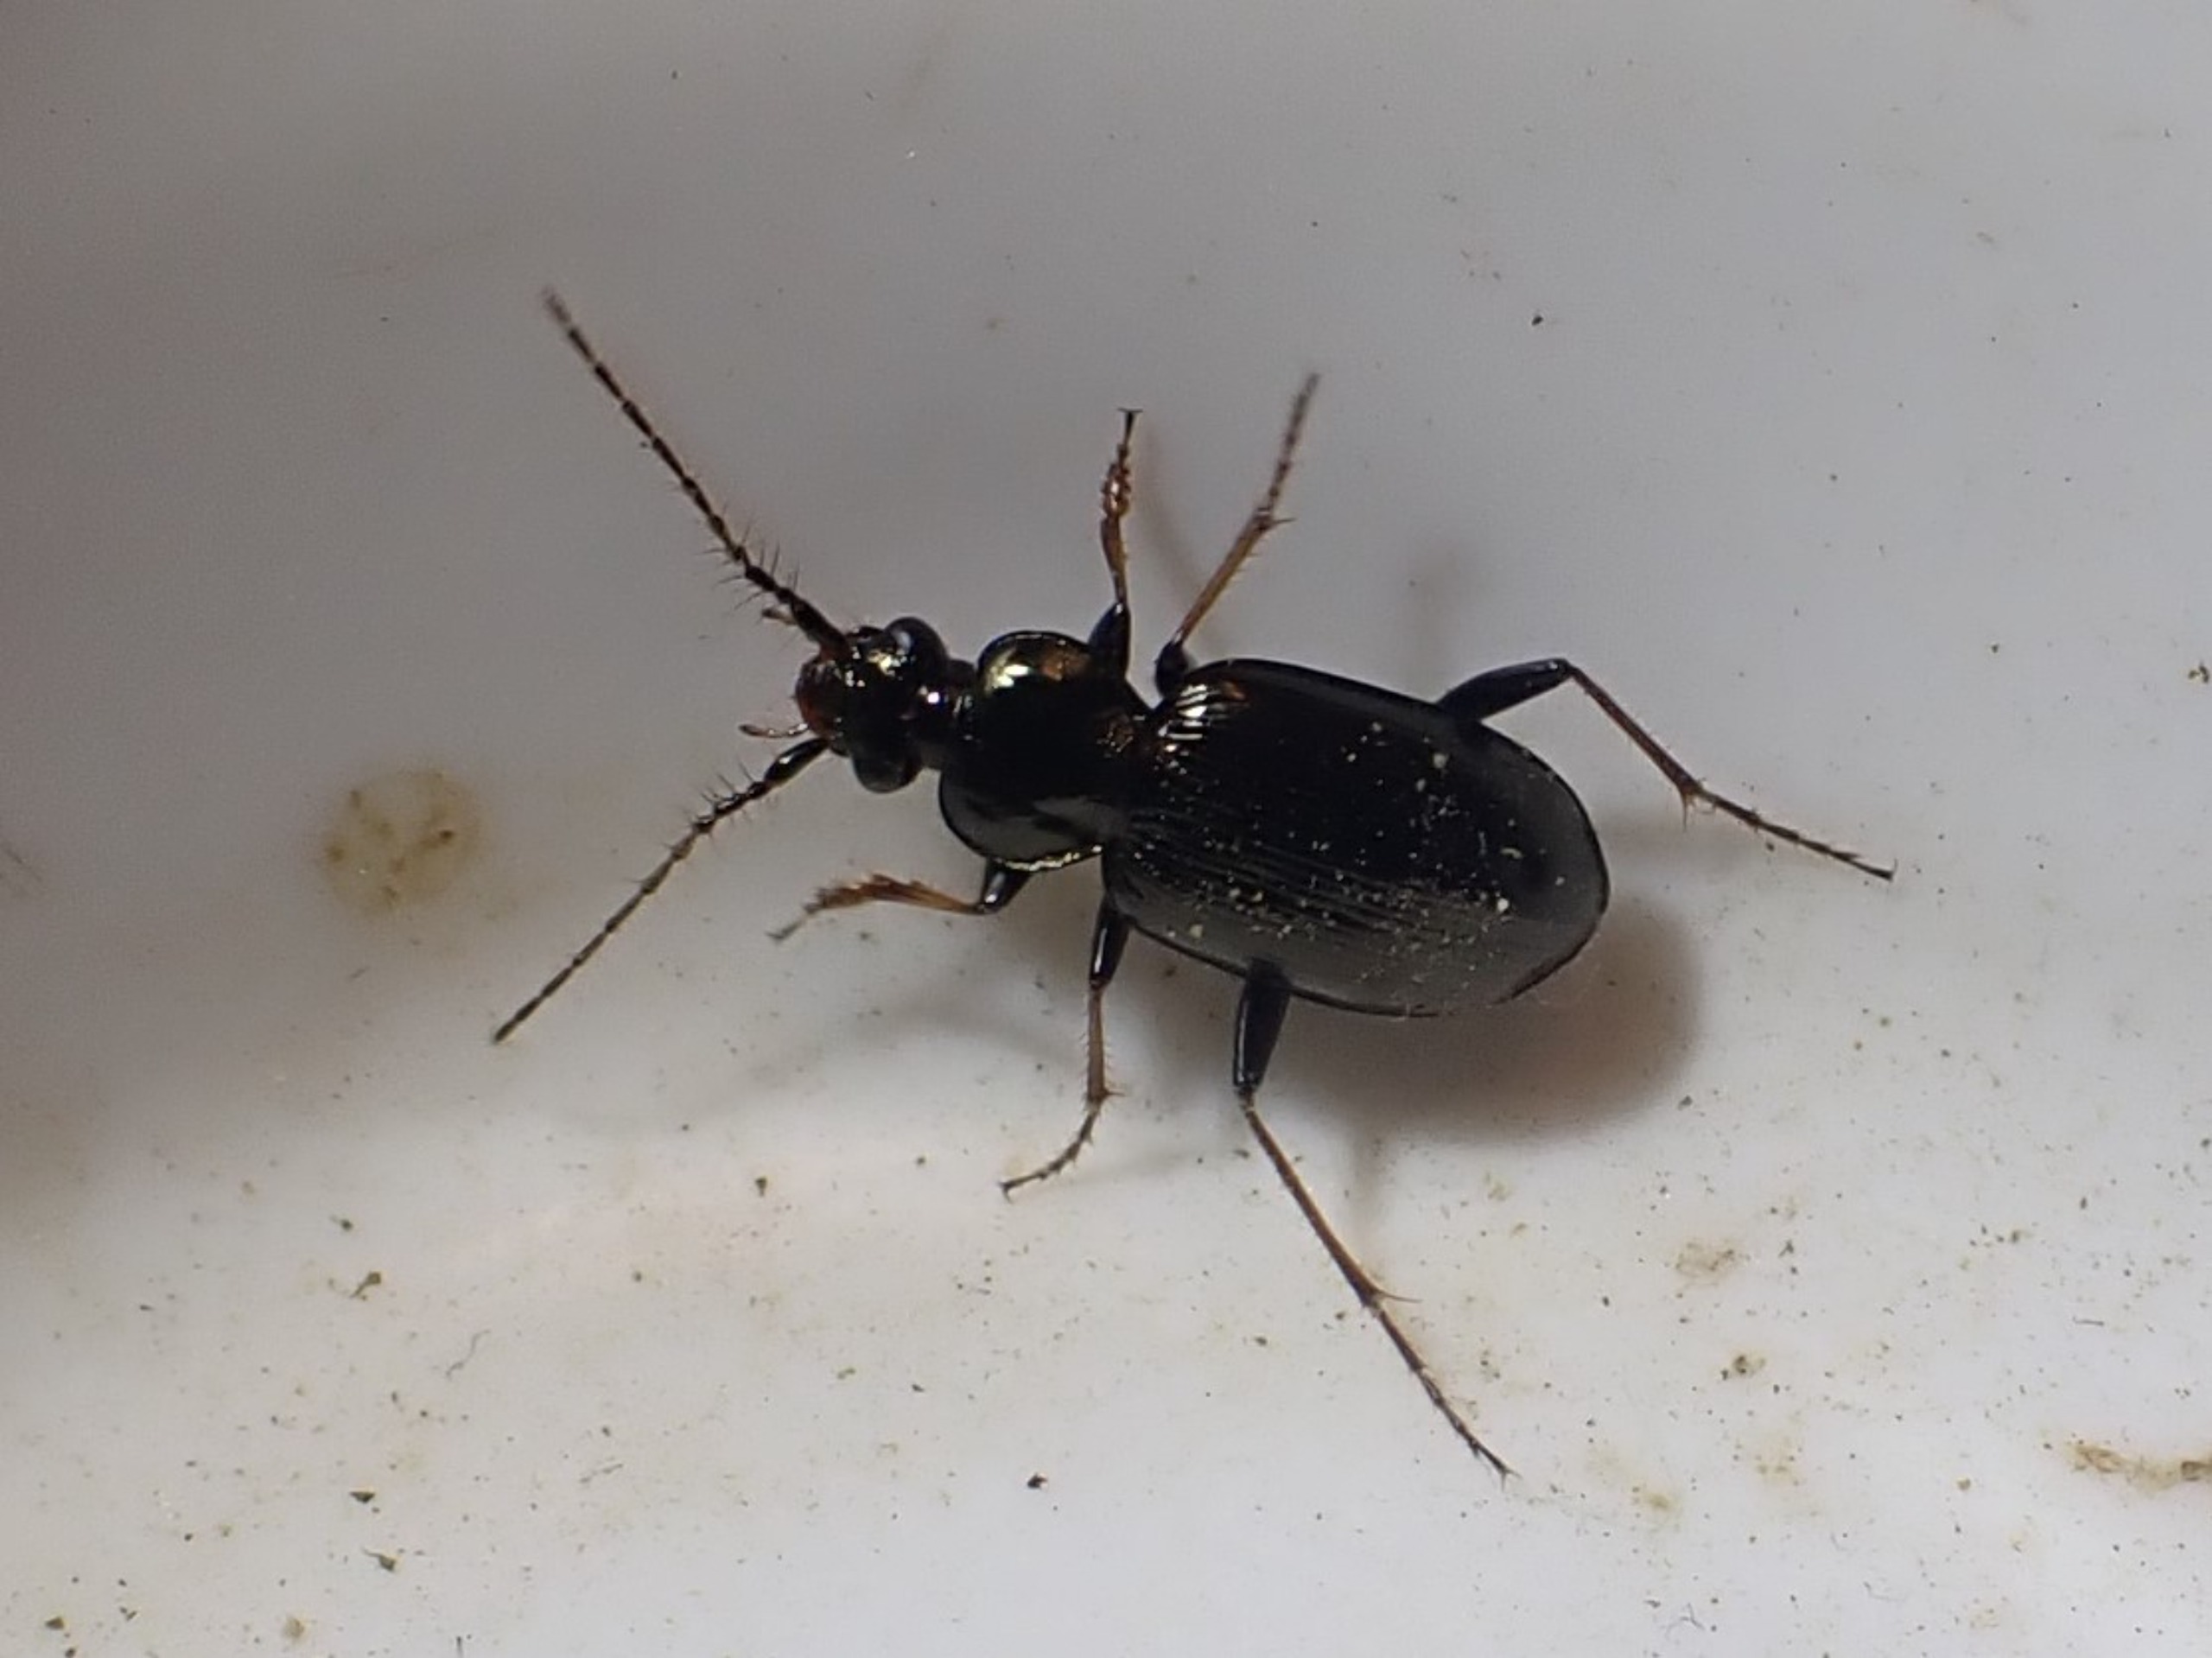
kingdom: Animalia
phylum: Arthropoda
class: Insecta
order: Coleoptera
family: Carabidae
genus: Loricera
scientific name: Loricera pilicornis
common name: Børsteløber
